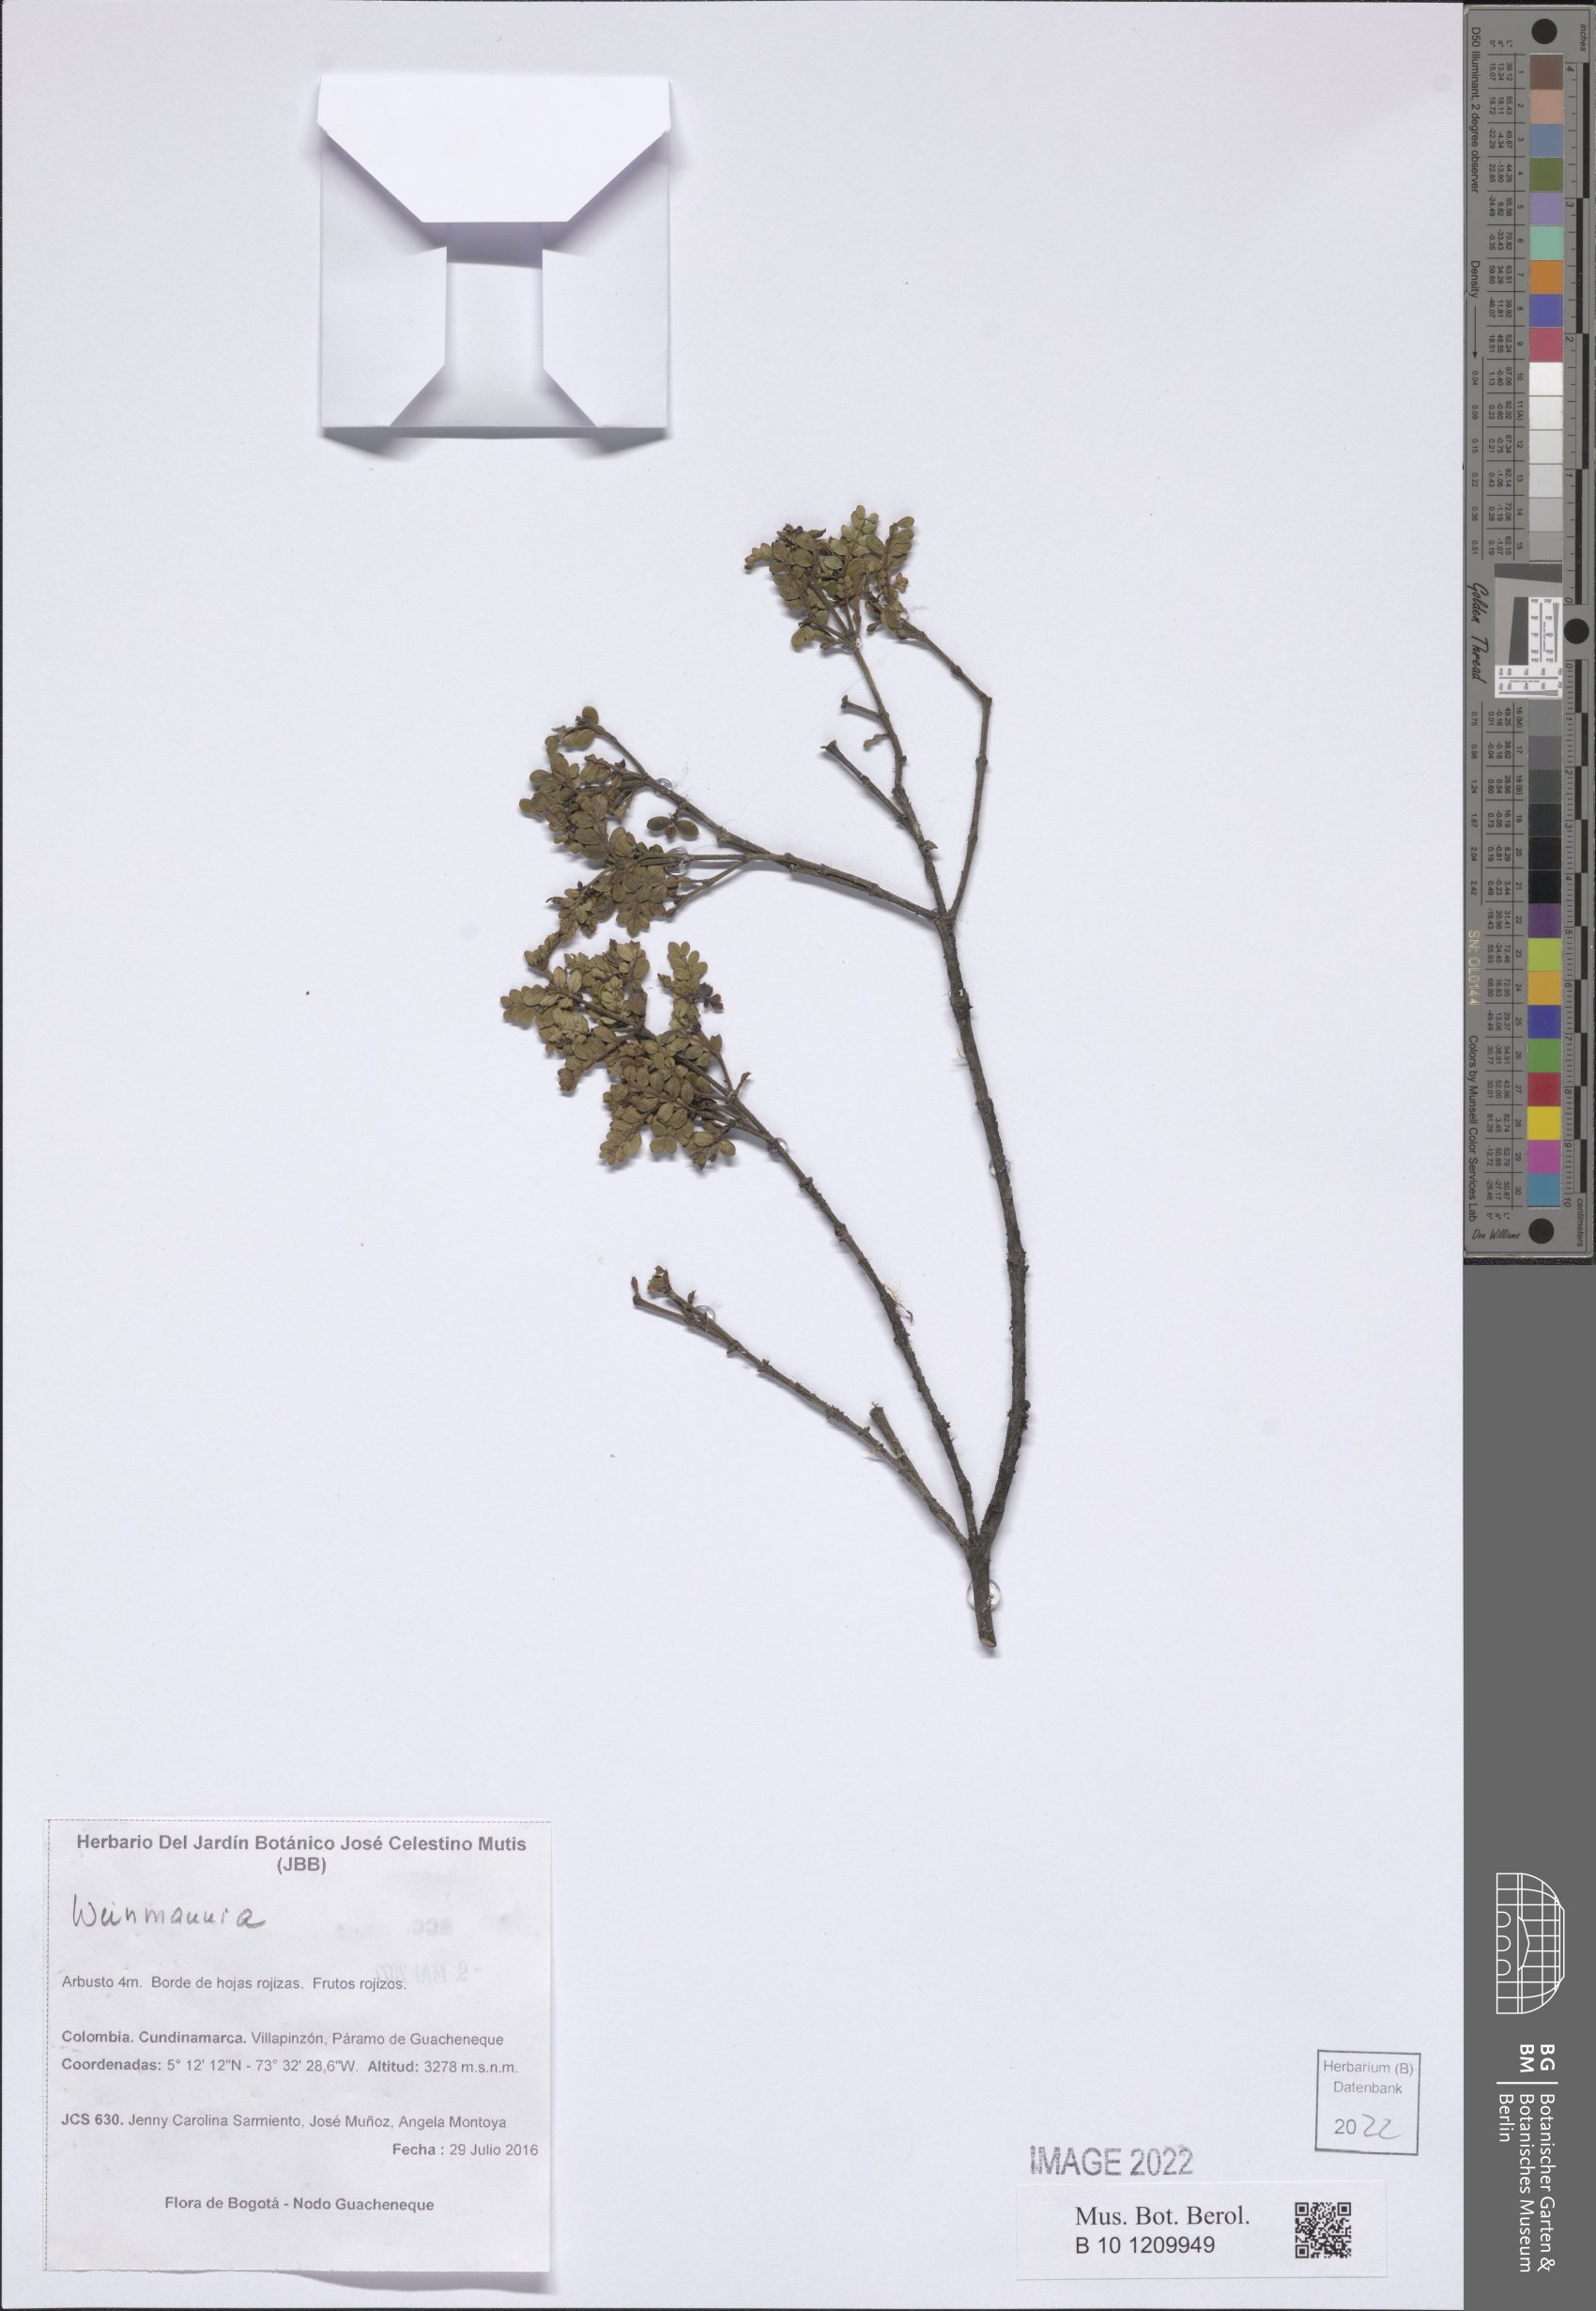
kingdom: Plantae
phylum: Tracheophyta
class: Magnoliopsida
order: Oxalidales
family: Cunoniaceae
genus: Weinmannia
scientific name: Weinmannia
